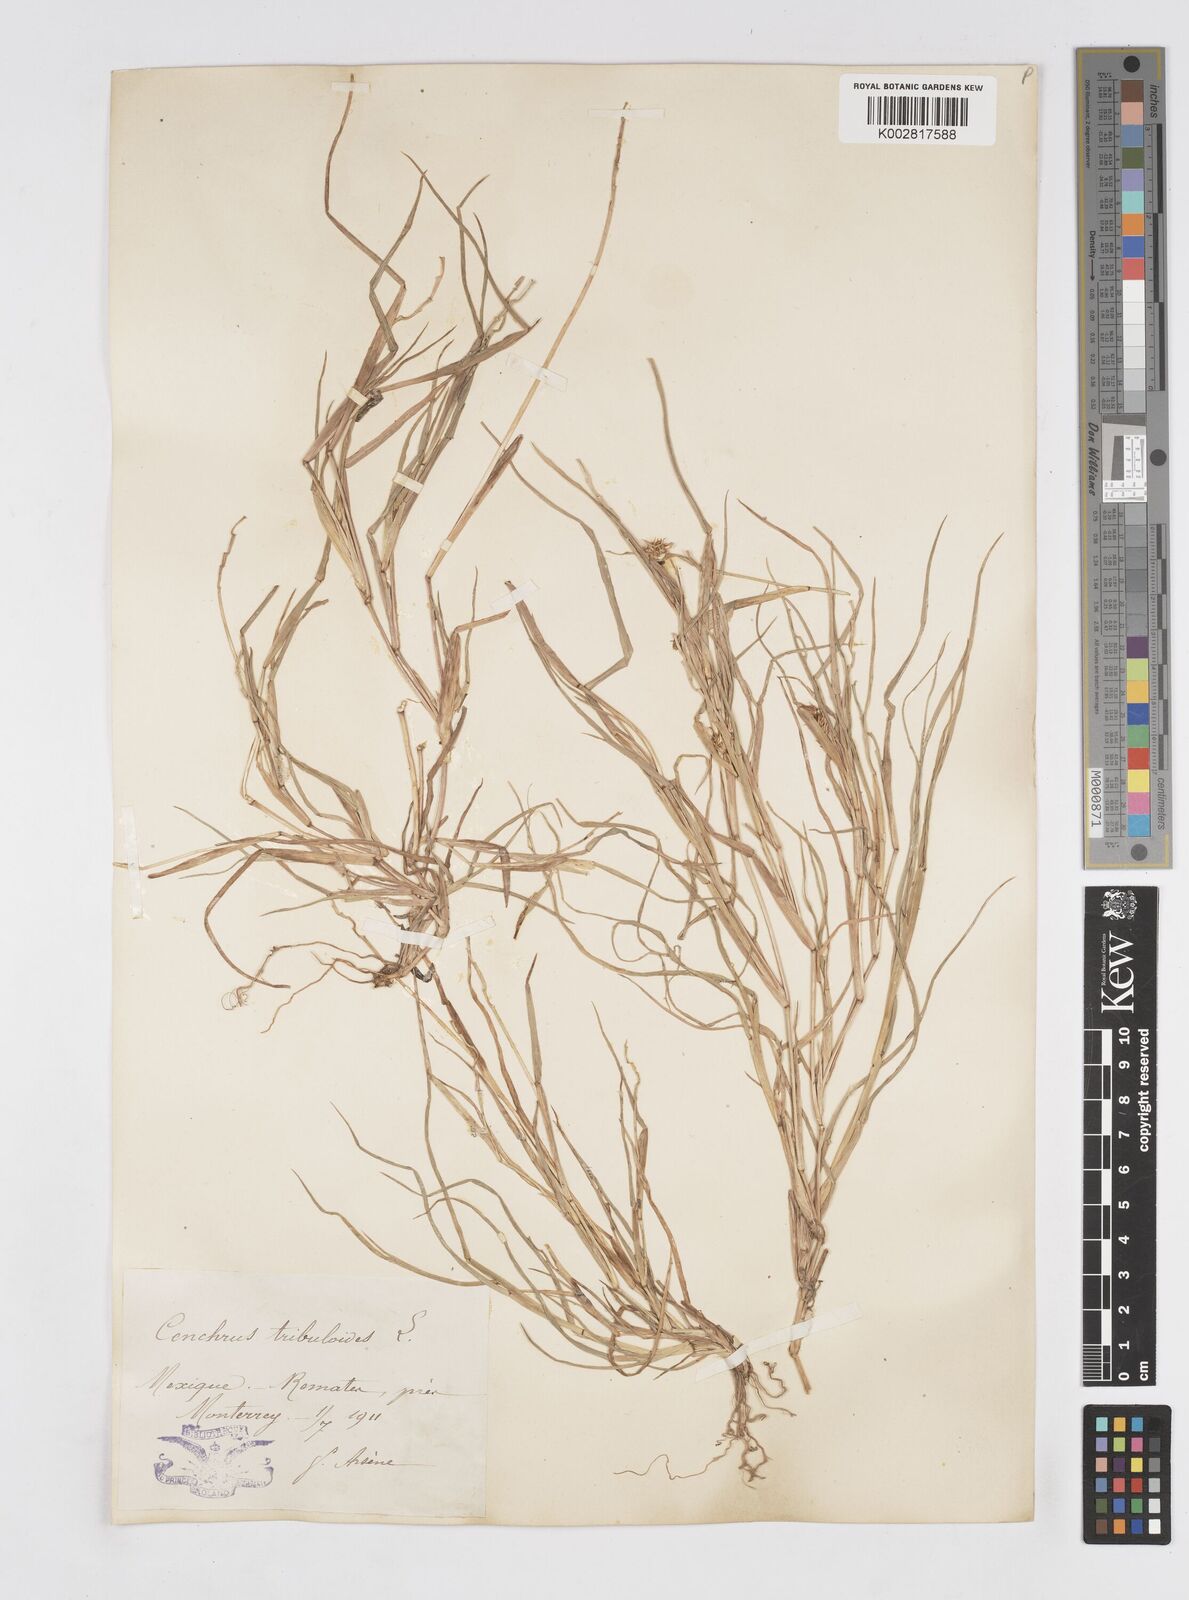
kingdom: Plantae
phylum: Tracheophyta
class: Liliopsida
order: Poales
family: Poaceae
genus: Cenchrus
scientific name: Cenchrus spinifex
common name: Coast sandbur
